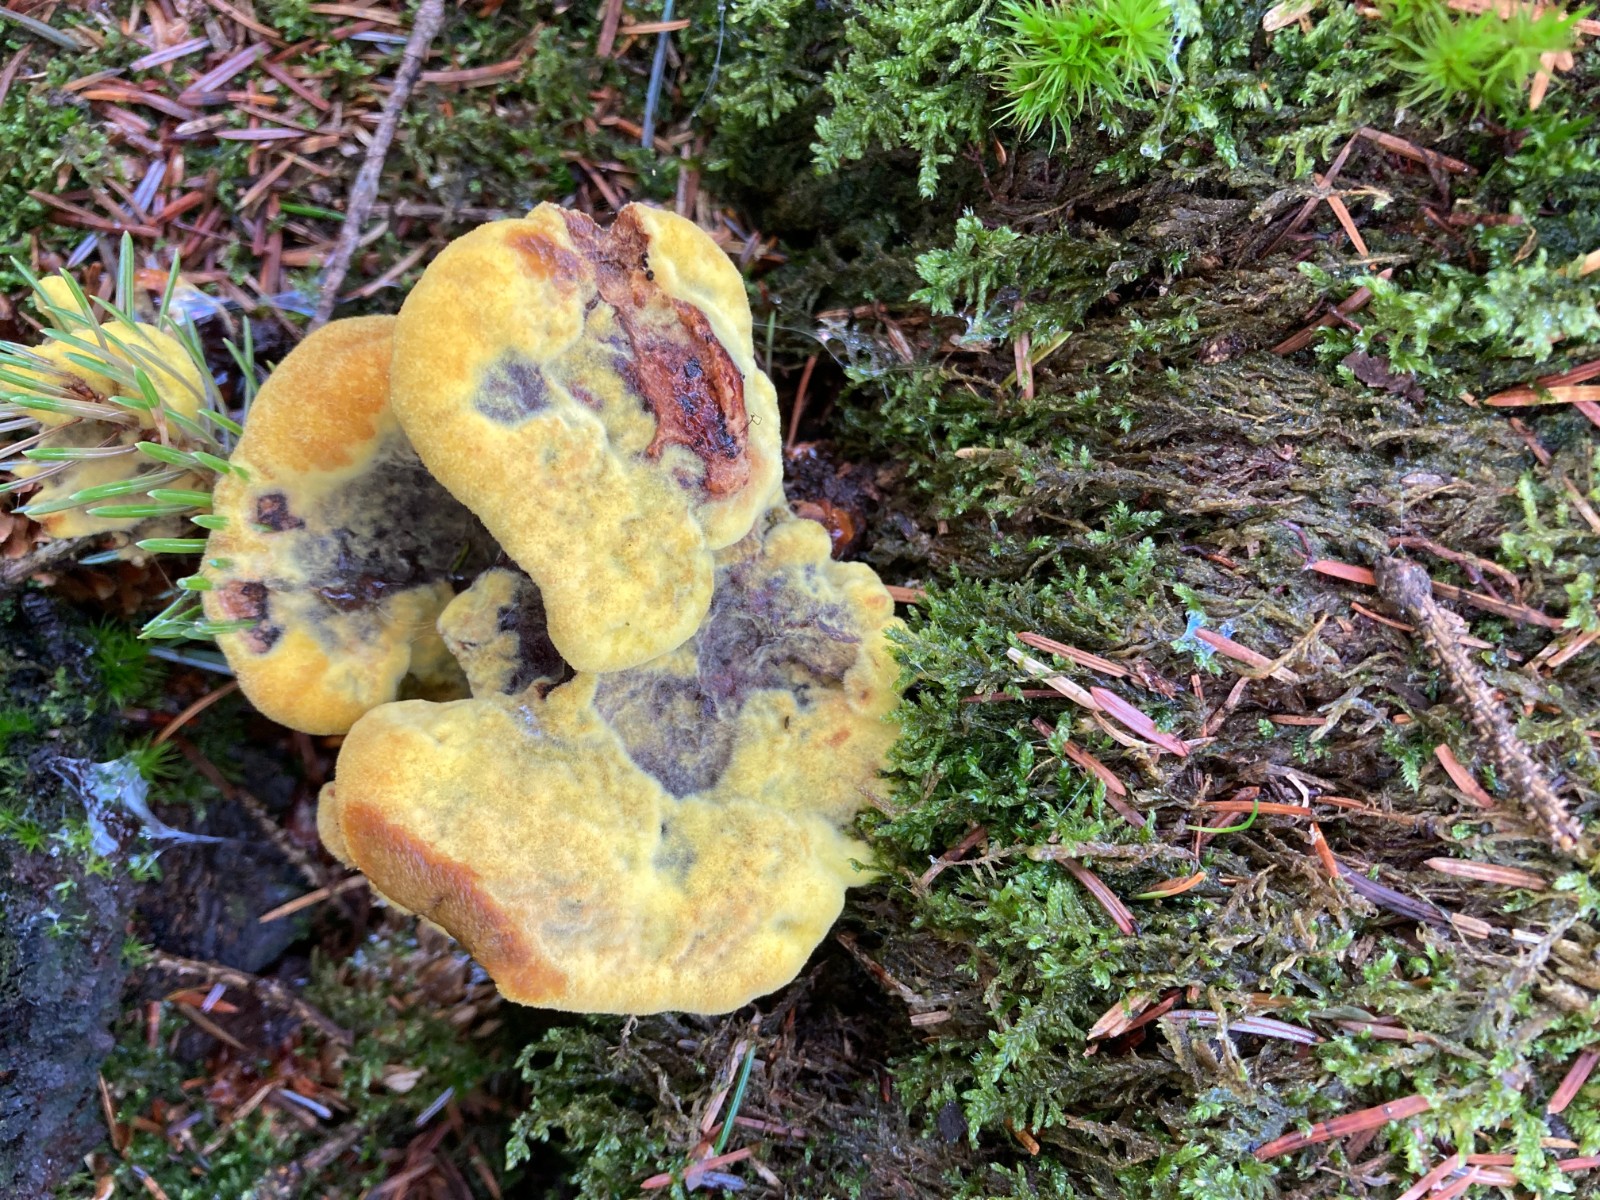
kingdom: Fungi
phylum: Basidiomycota
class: Agaricomycetes
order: Polyporales
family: Laetiporaceae
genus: Phaeolus
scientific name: Phaeolus
